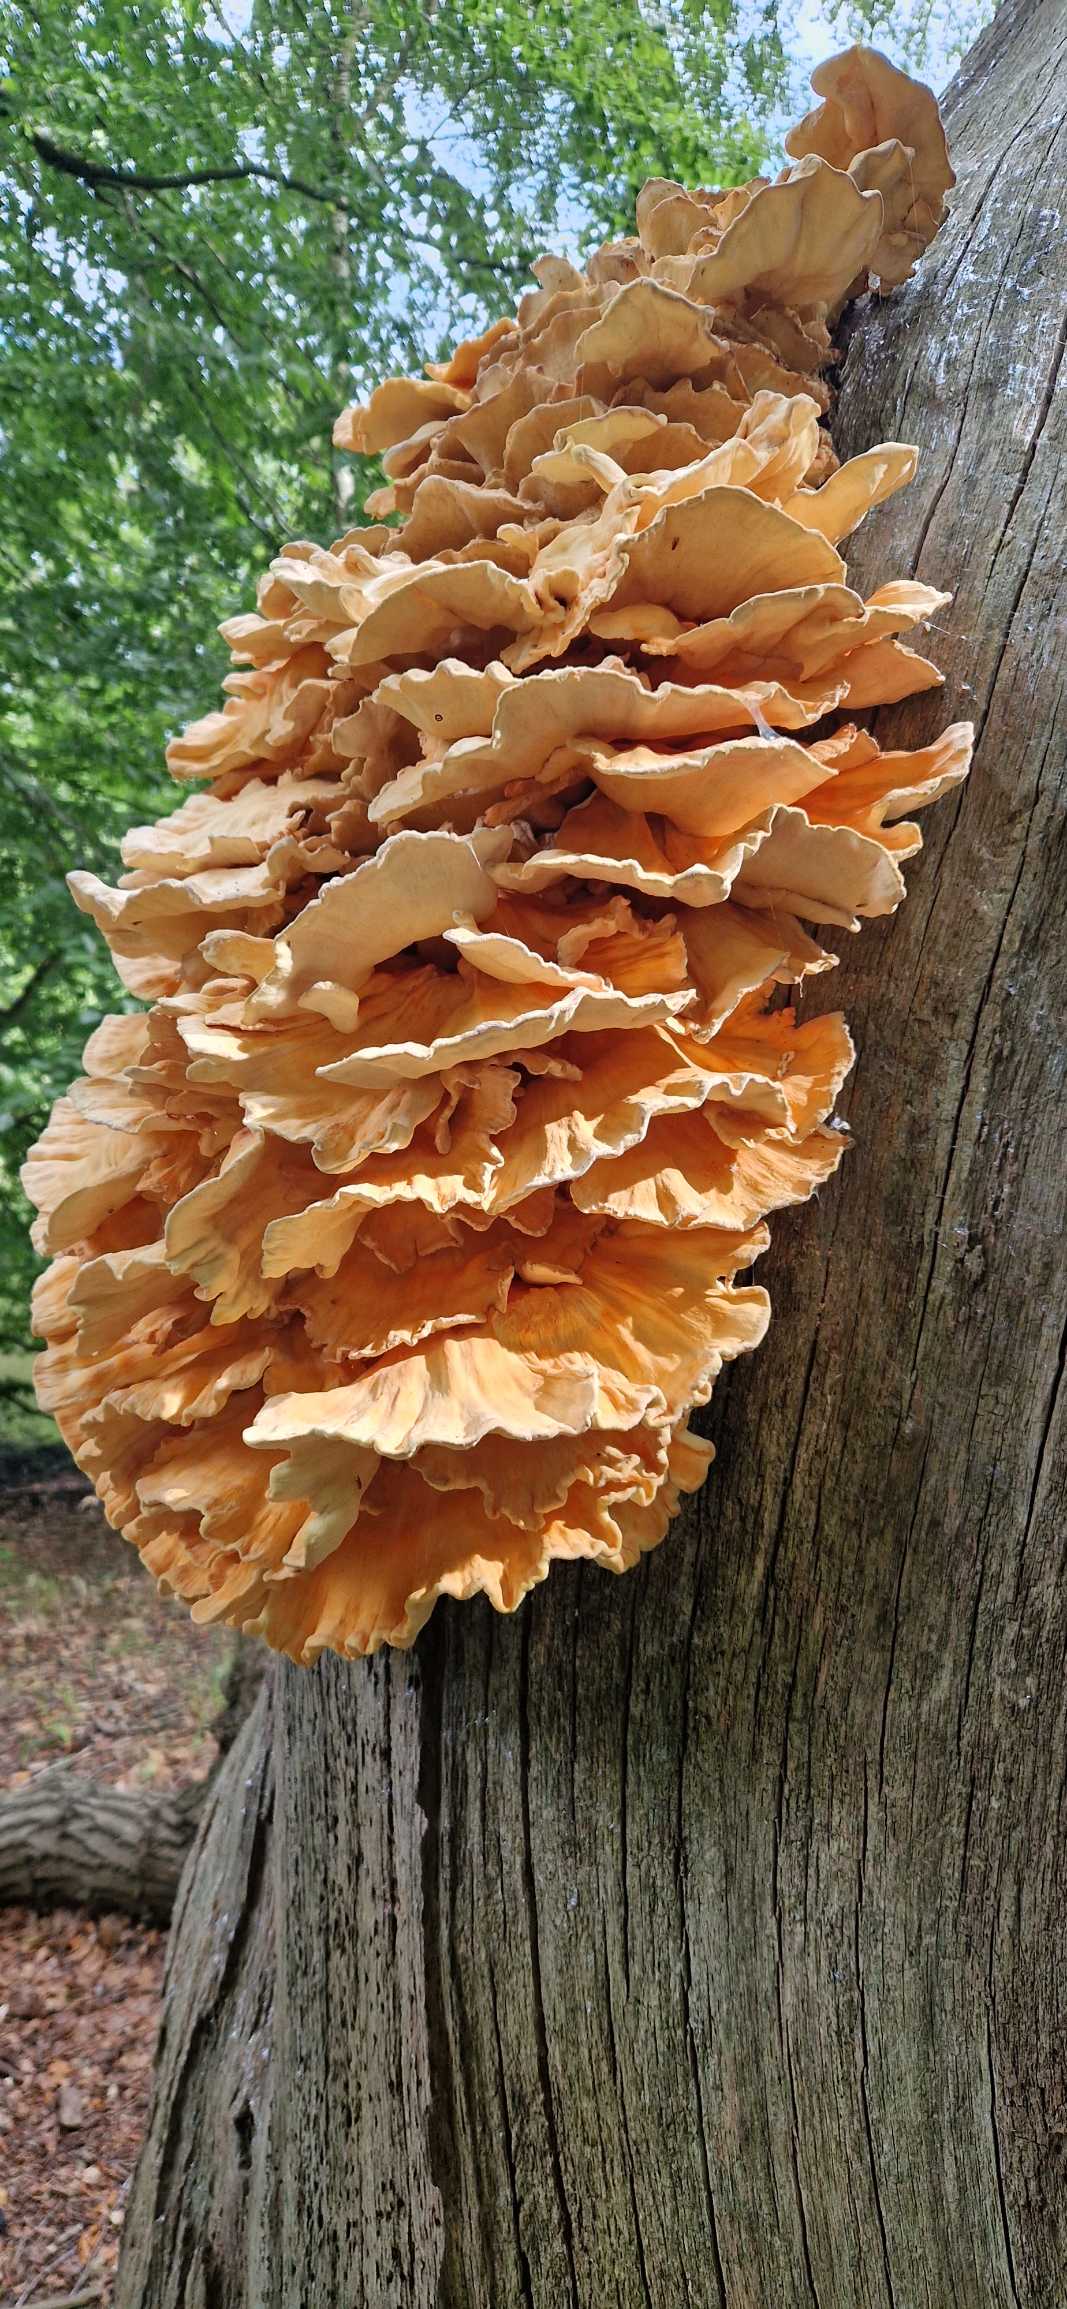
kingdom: Fungi
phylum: Basidiomycota
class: Agaricomycetes
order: Polyporales
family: Laetiporaceae
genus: Laetiporus
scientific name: Laetiporus sulphureus
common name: Svovlporesvamp
